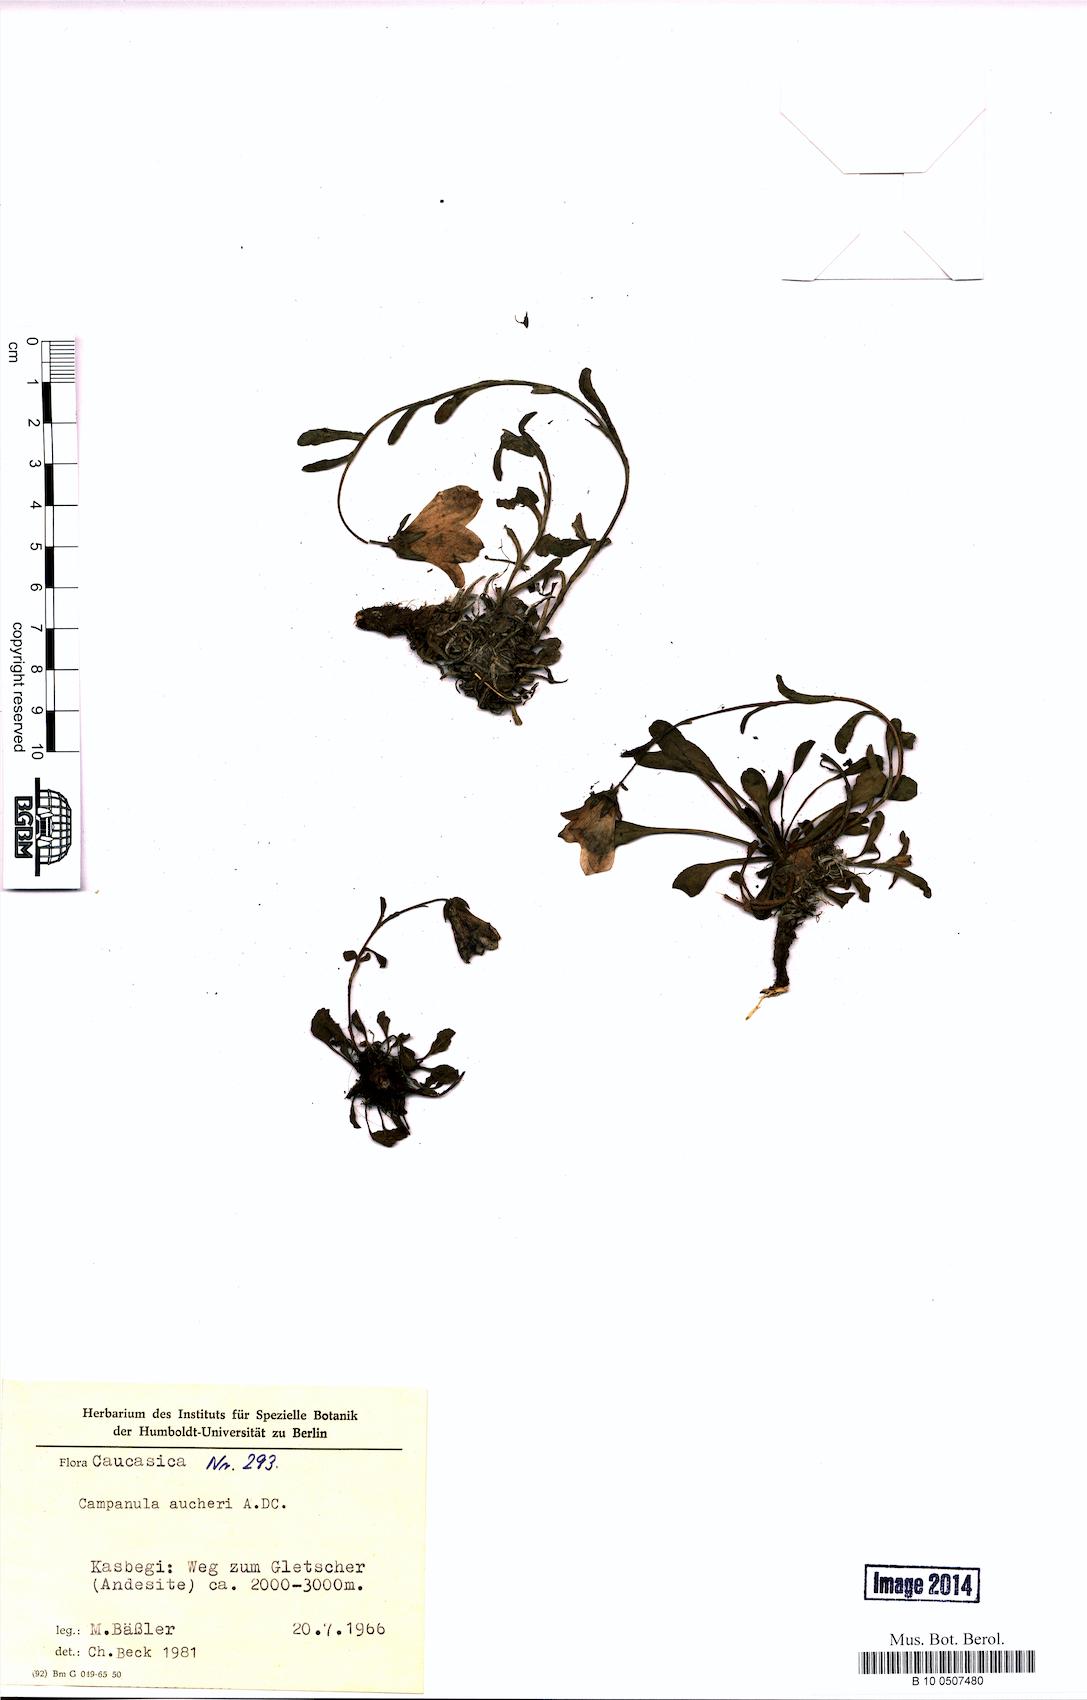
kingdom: Plantae
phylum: Tracheophyta
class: Magnoliopsida
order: Asterales
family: Campanulaceae
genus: Campanula
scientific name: Campanula saxifraga
